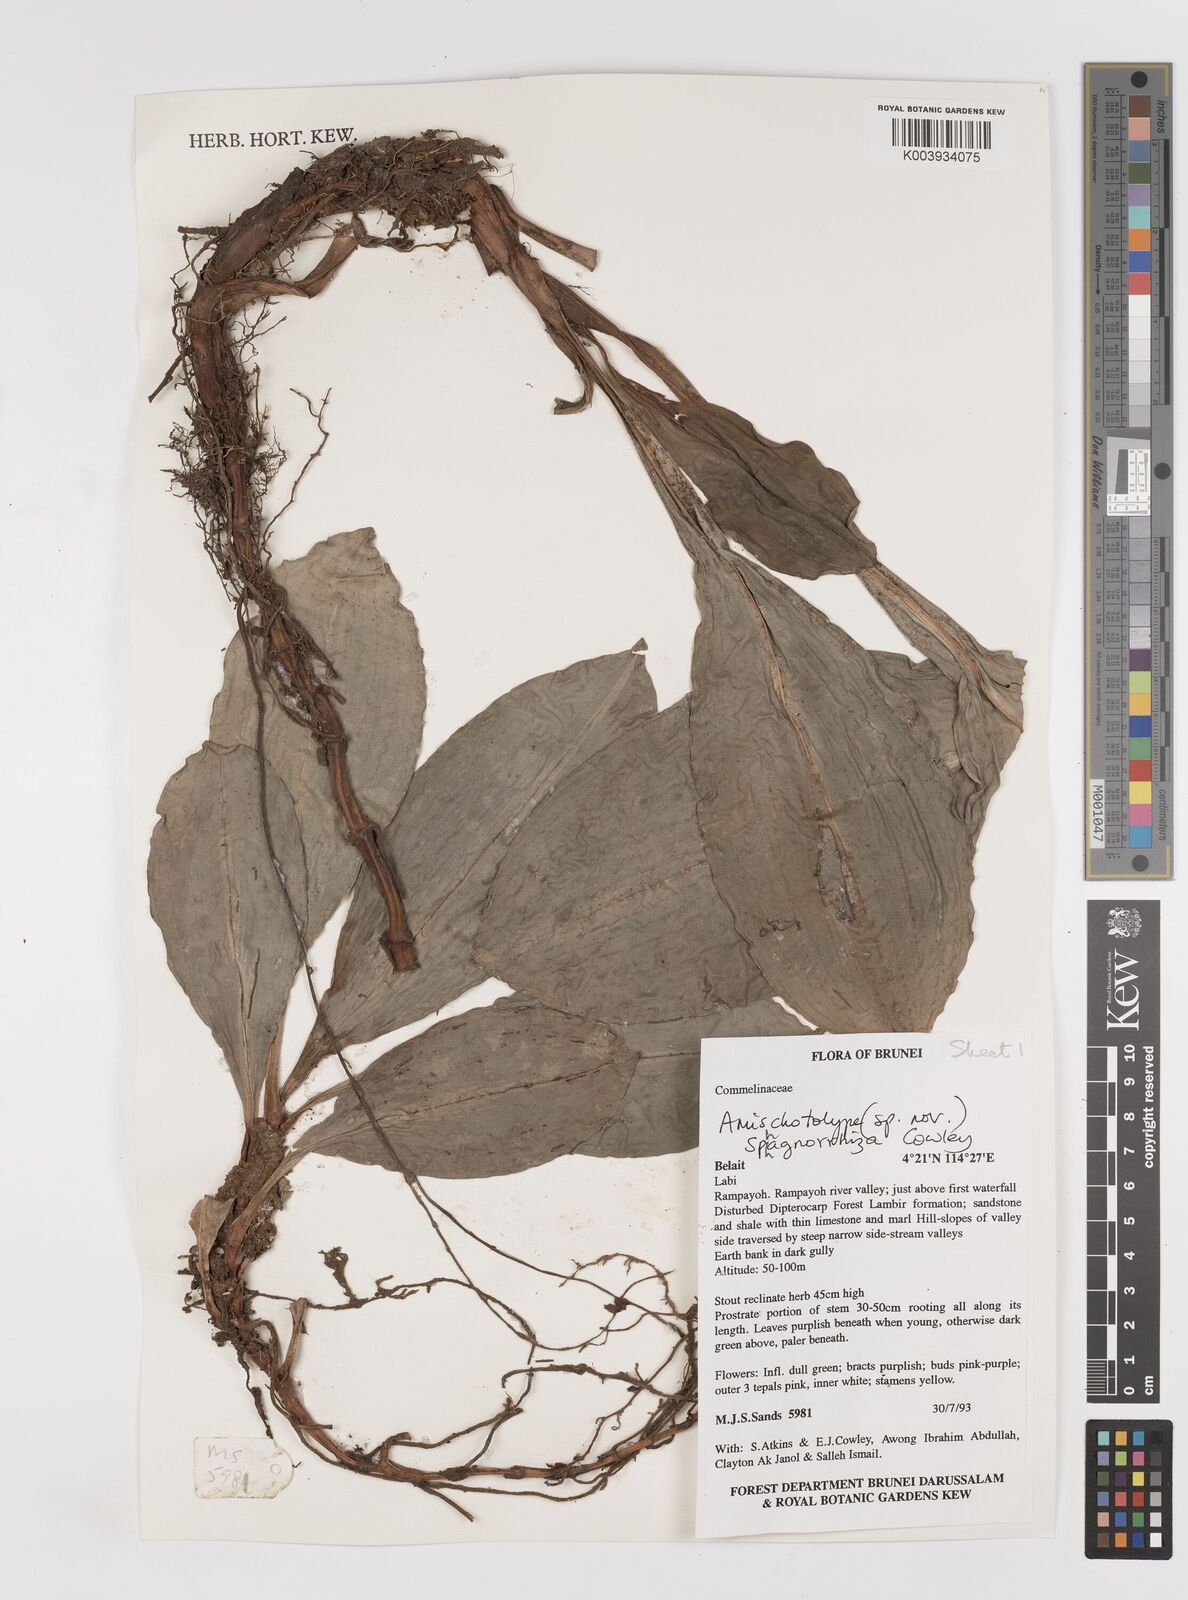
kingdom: Plantae
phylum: Tracheophyta
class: Liliopsida
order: Commelinales
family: Commelinaceae
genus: Amischotolype
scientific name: Amischotolype sphagnorrhiza
